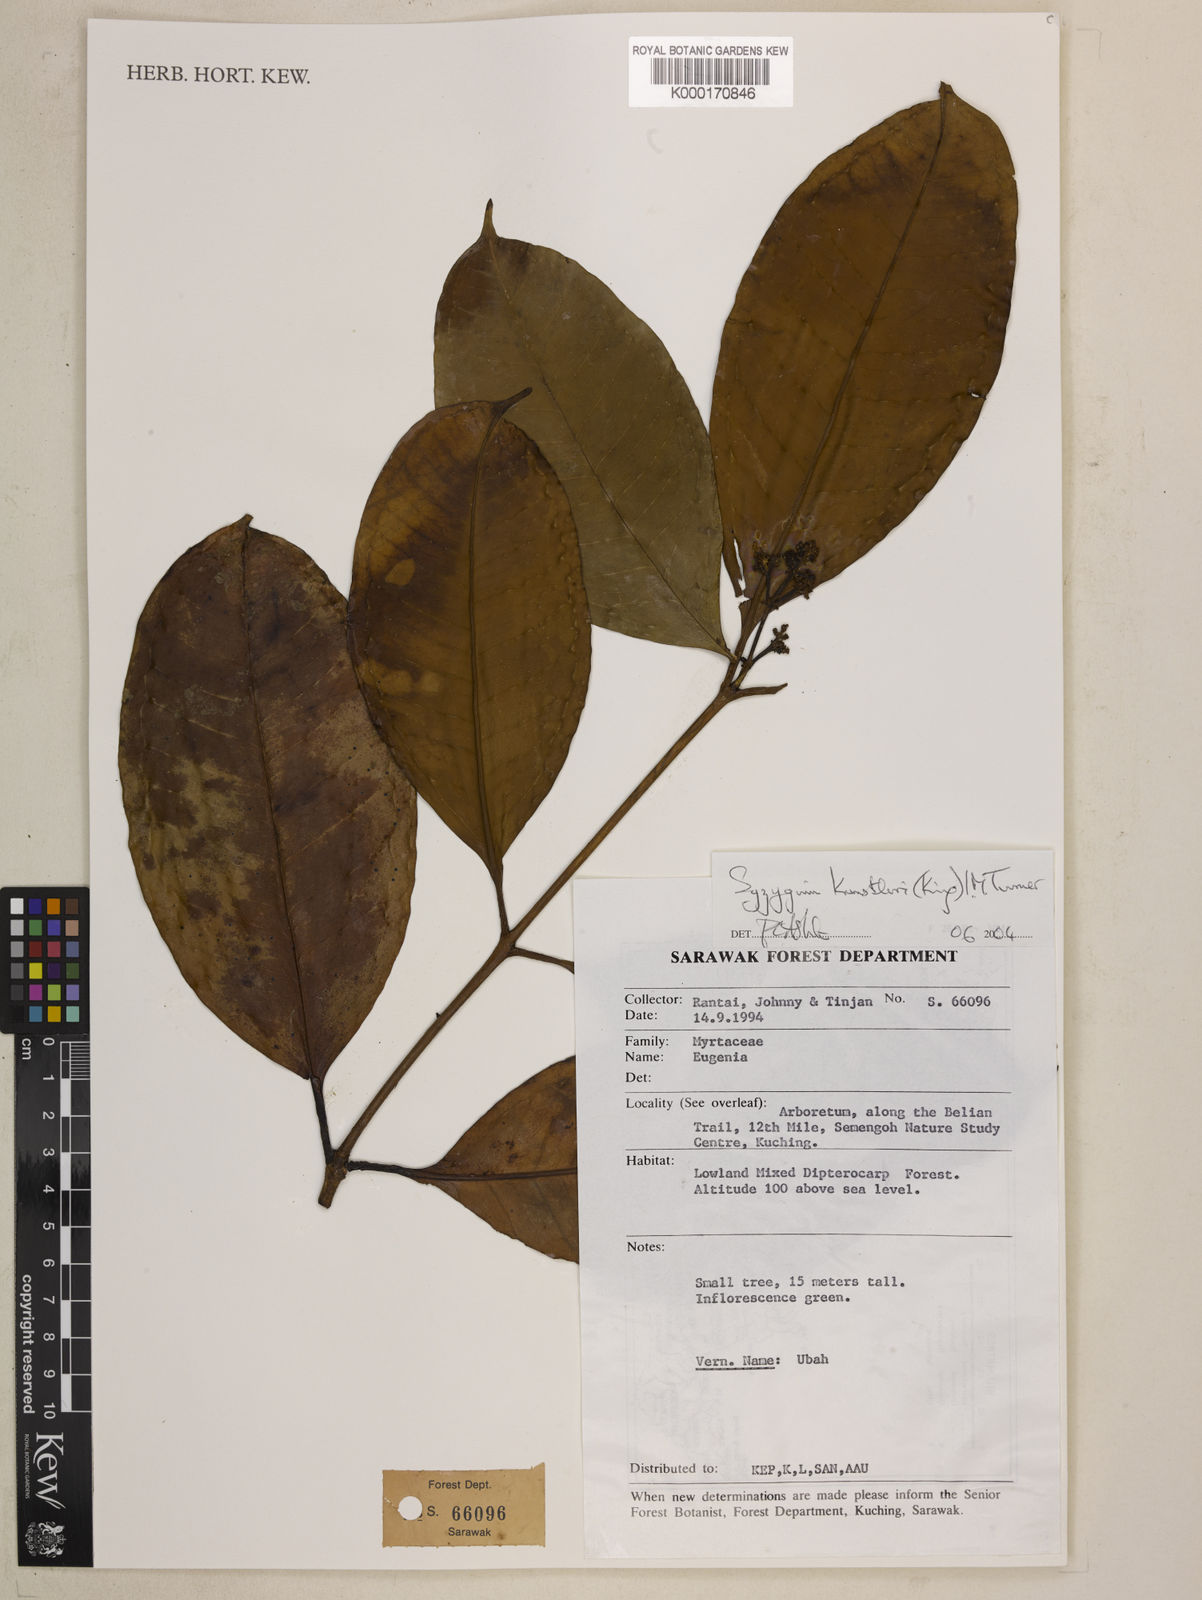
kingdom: Plantae
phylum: Tracheophyta
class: Magnoliopsida
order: Myrtales
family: Myrtaceae
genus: Syzygium
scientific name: Syzygium
